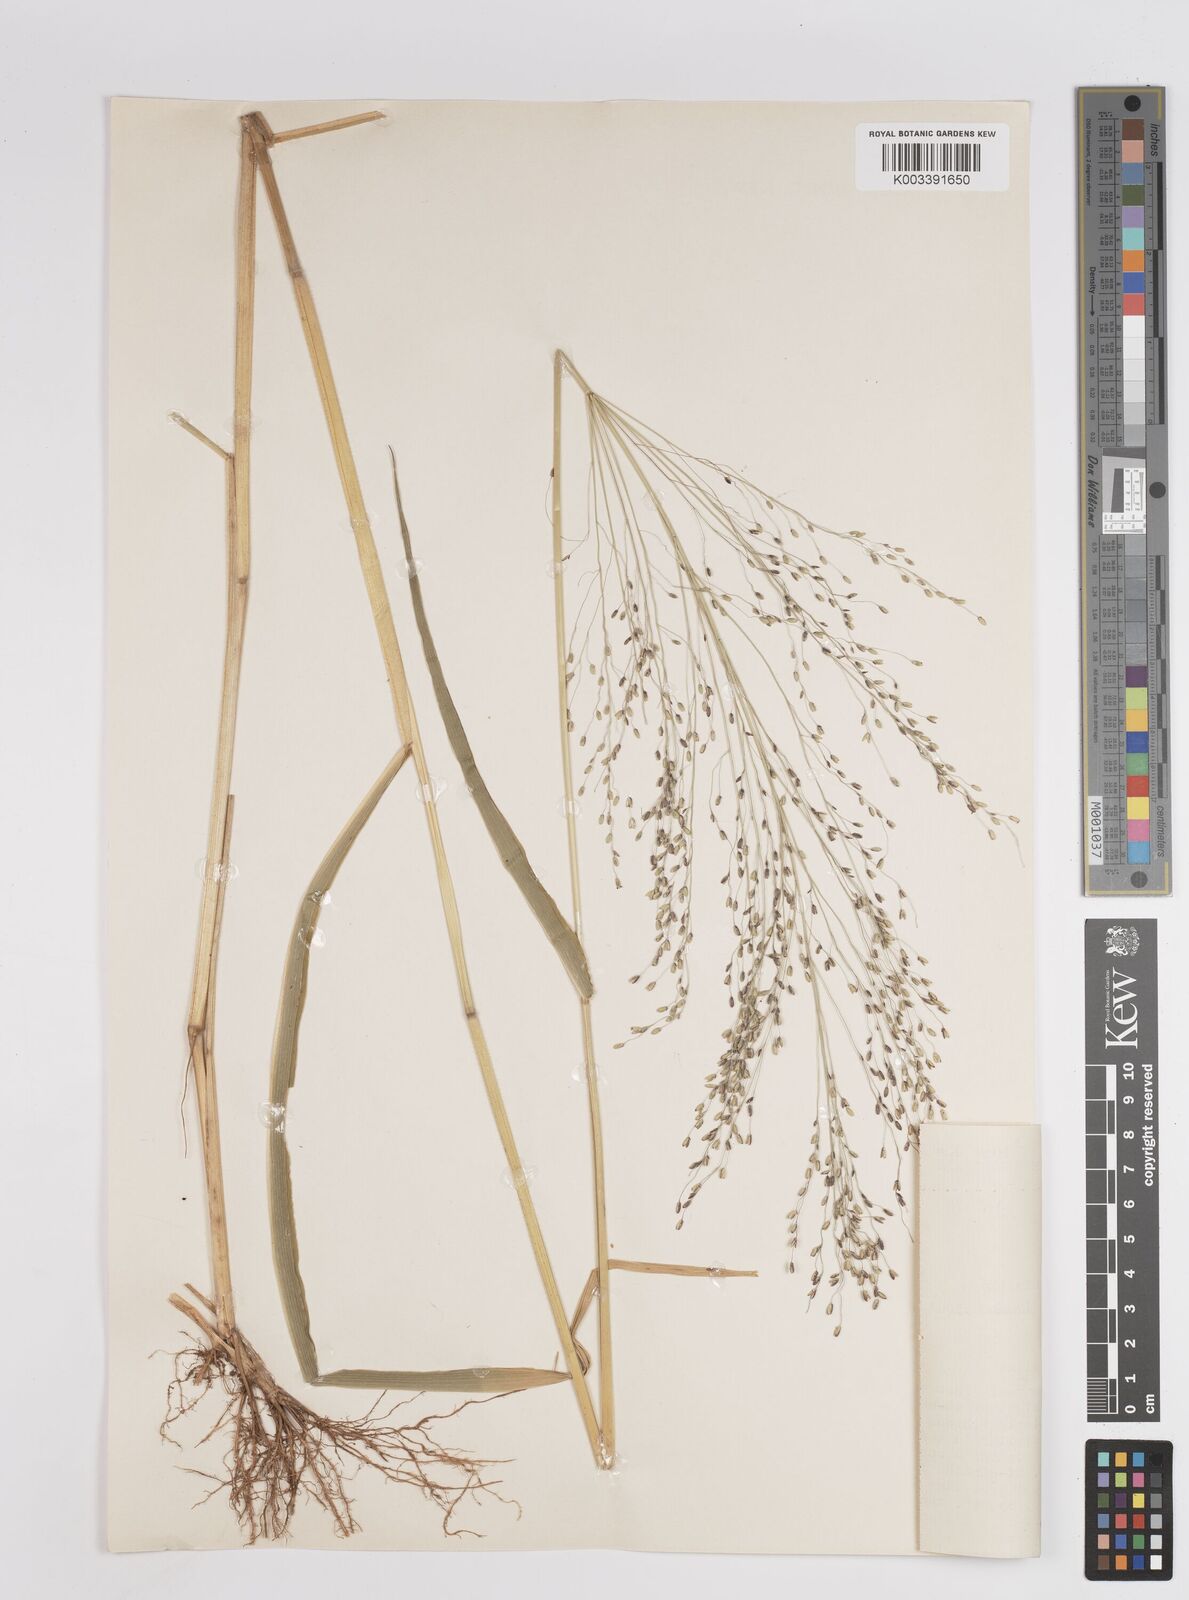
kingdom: Plantae
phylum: Tracheophyta
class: Liliopsida
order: Poales
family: Poaceae
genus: Megathyrsus
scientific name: Megathyrsus maximus
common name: Guineagrass
